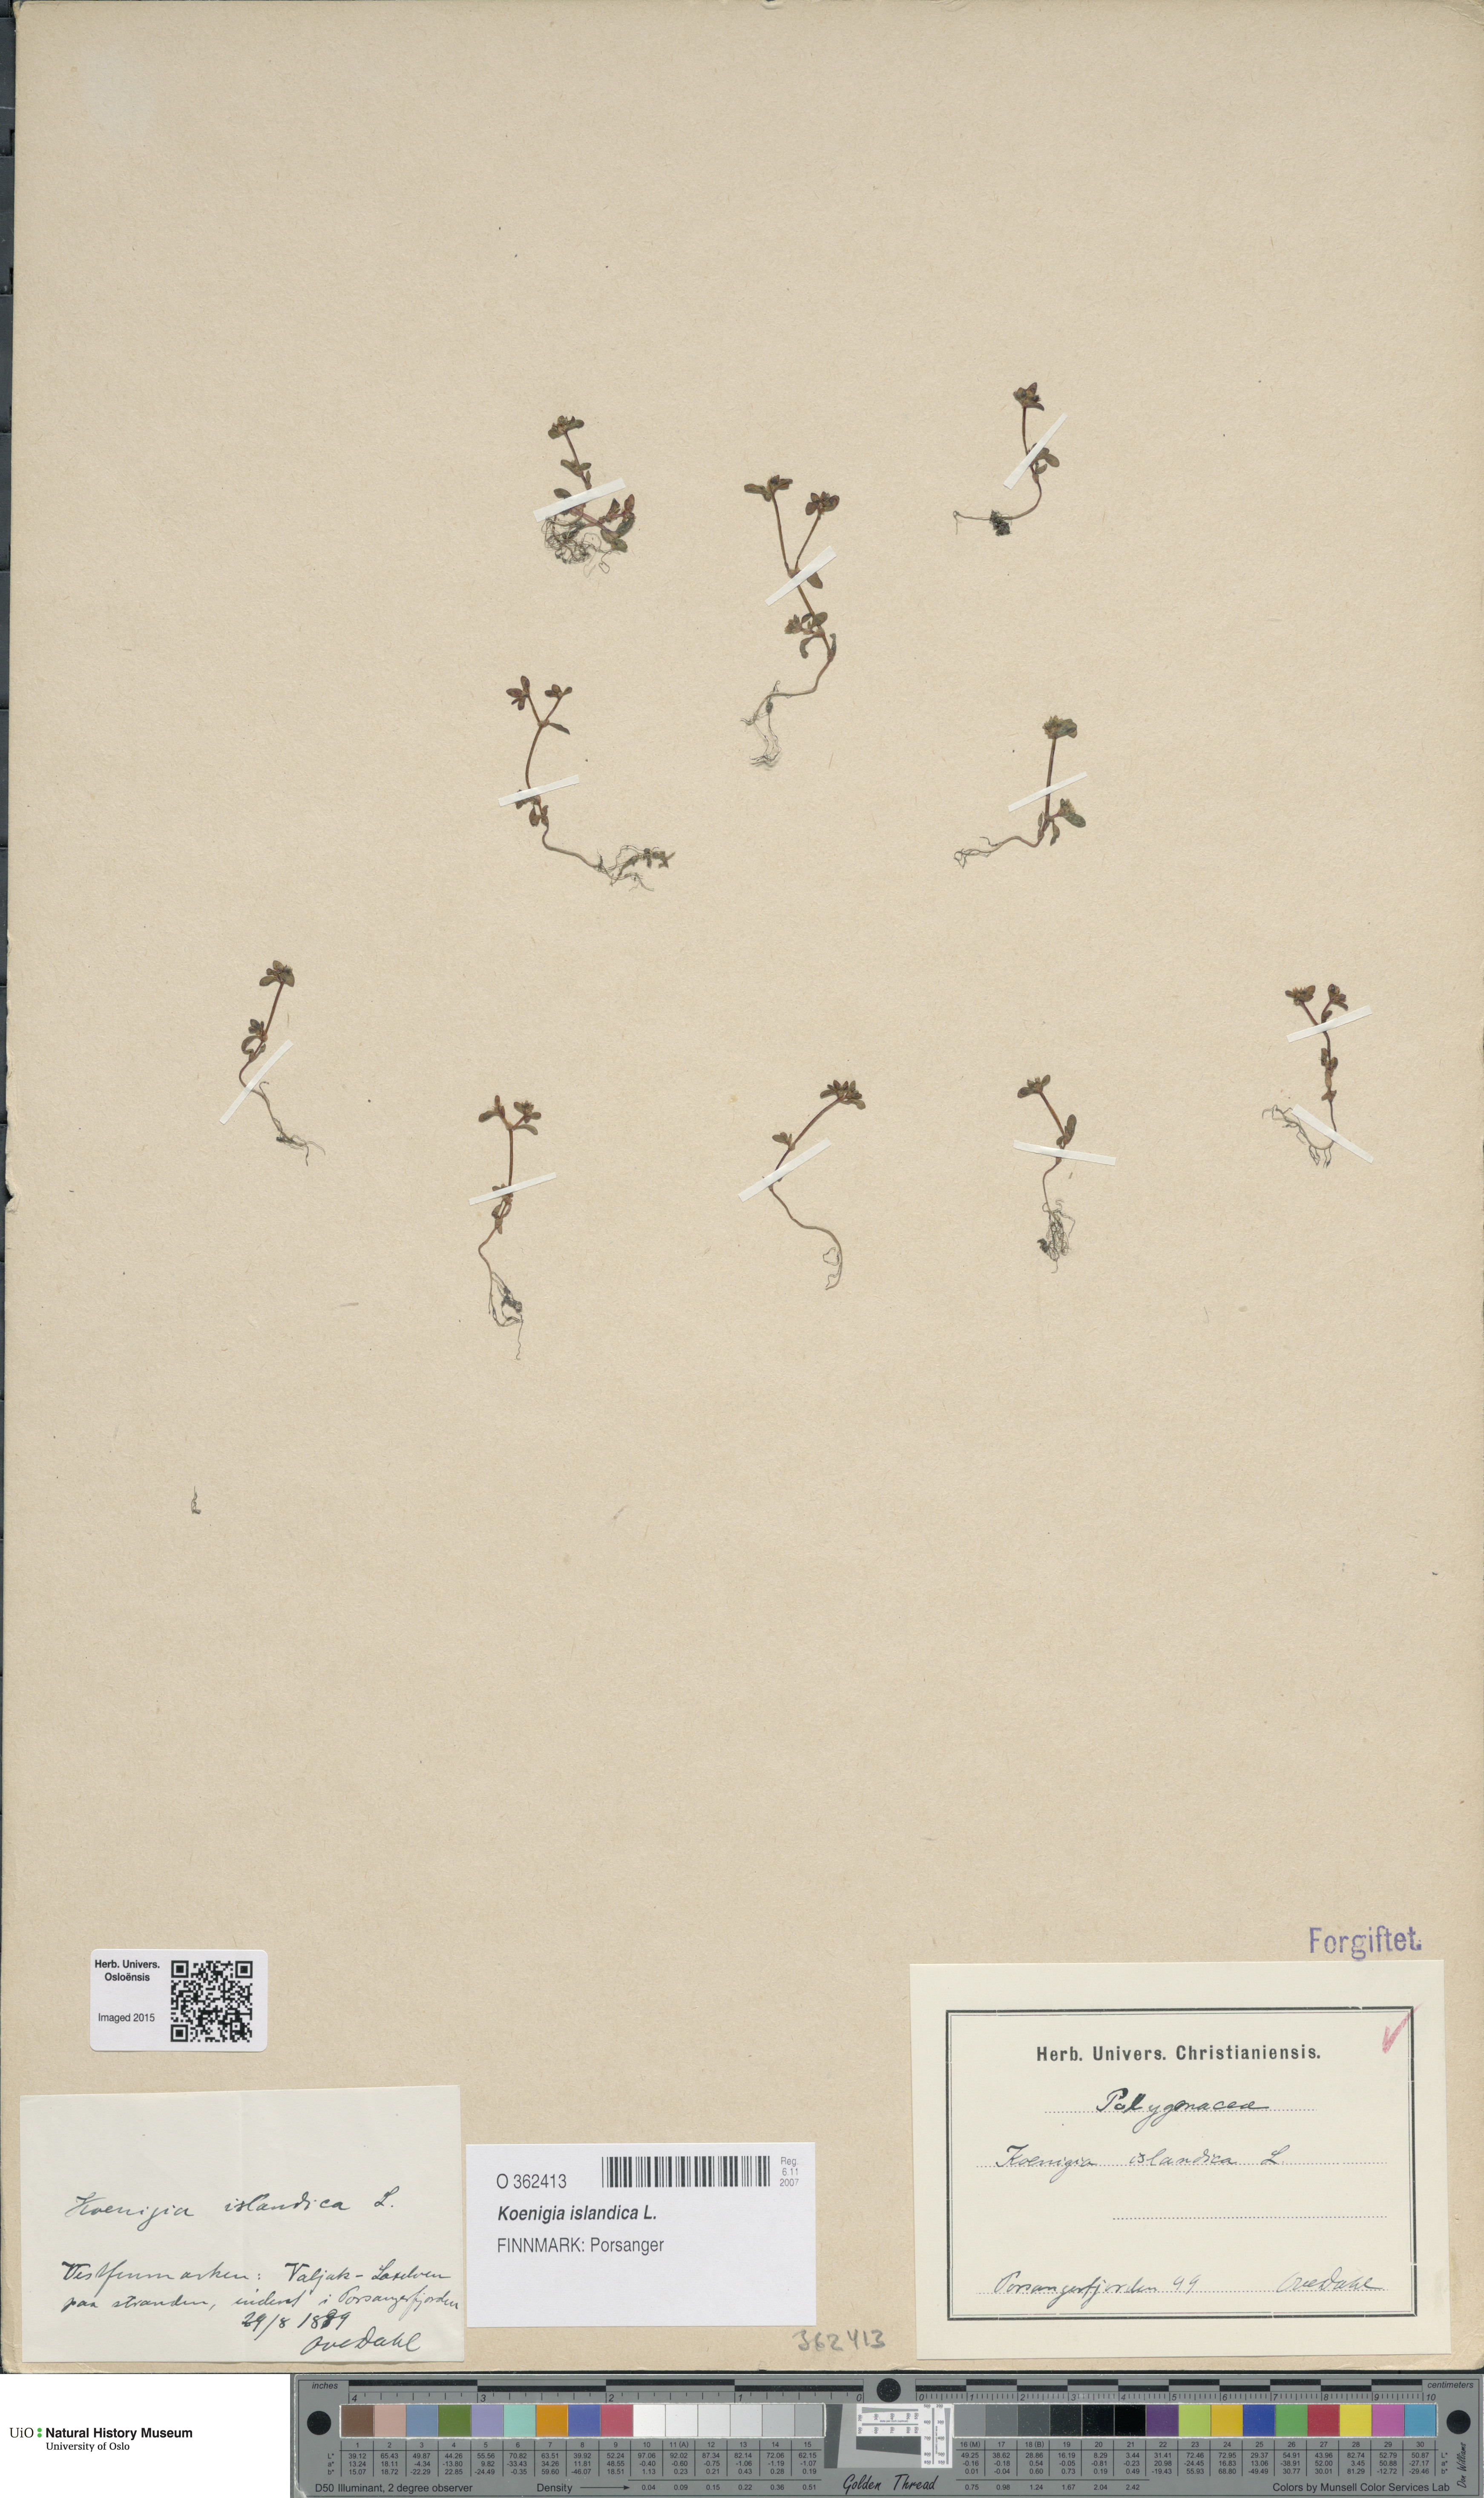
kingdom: Plantae
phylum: Tracheophyta
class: Magnoliopsida
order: Caryophyllales
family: Polygonaceae
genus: Koenigia
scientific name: Koenigia islandica
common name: Iceland-purslane
